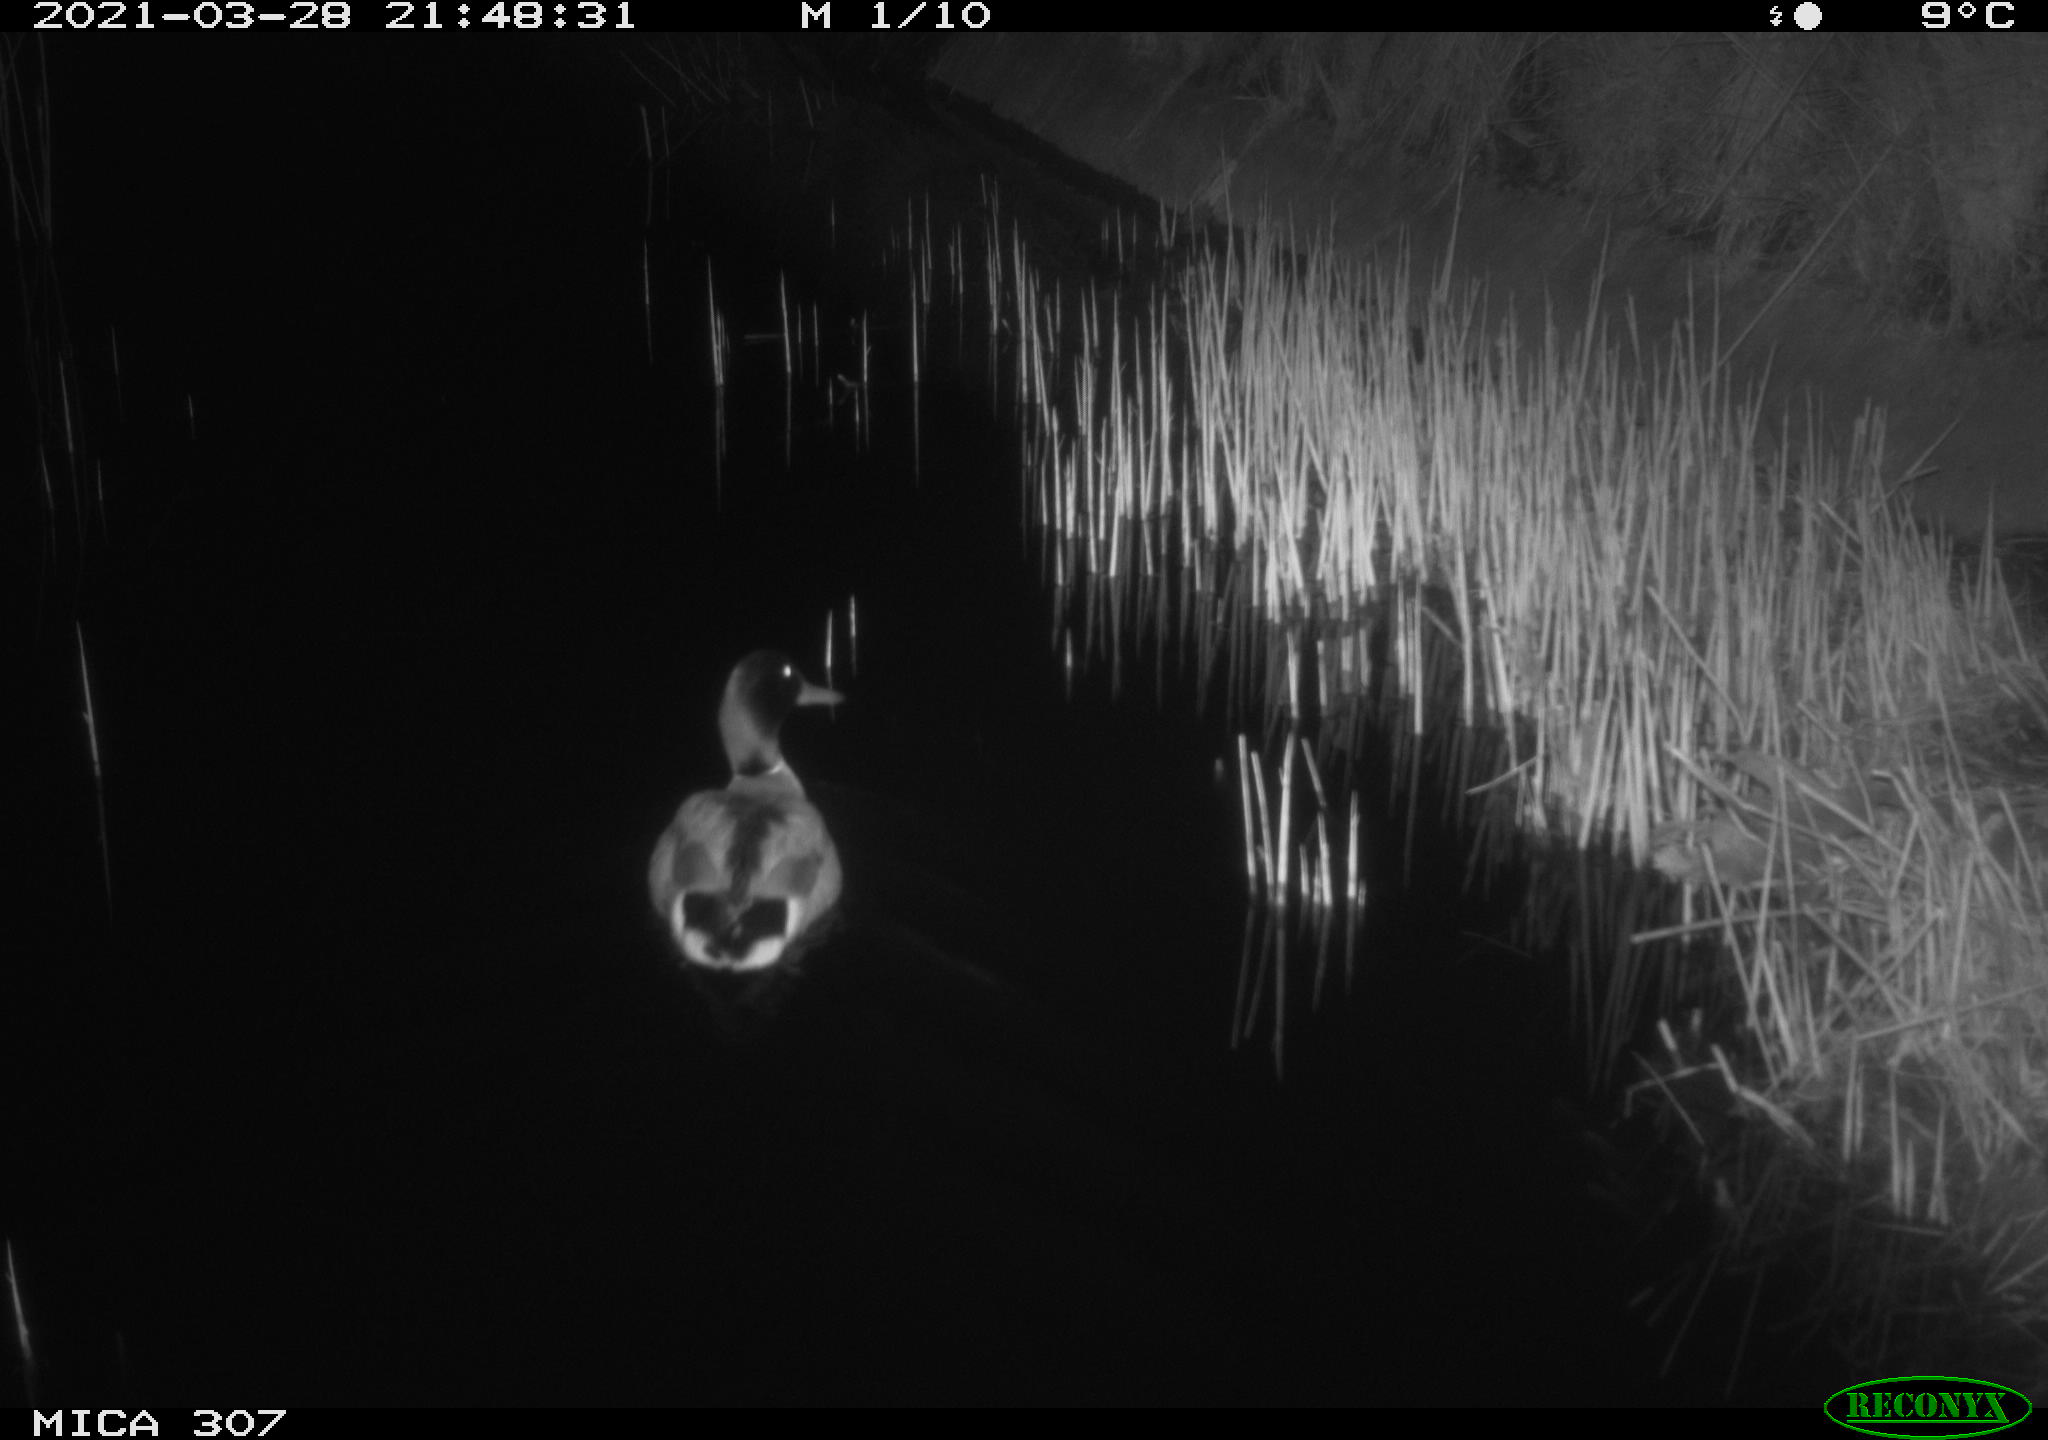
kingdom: Animalia
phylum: Chordata
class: Aves
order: Anseriformes
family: Anatidae
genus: Anas
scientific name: Anas platyrhynchos
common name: Mallard
